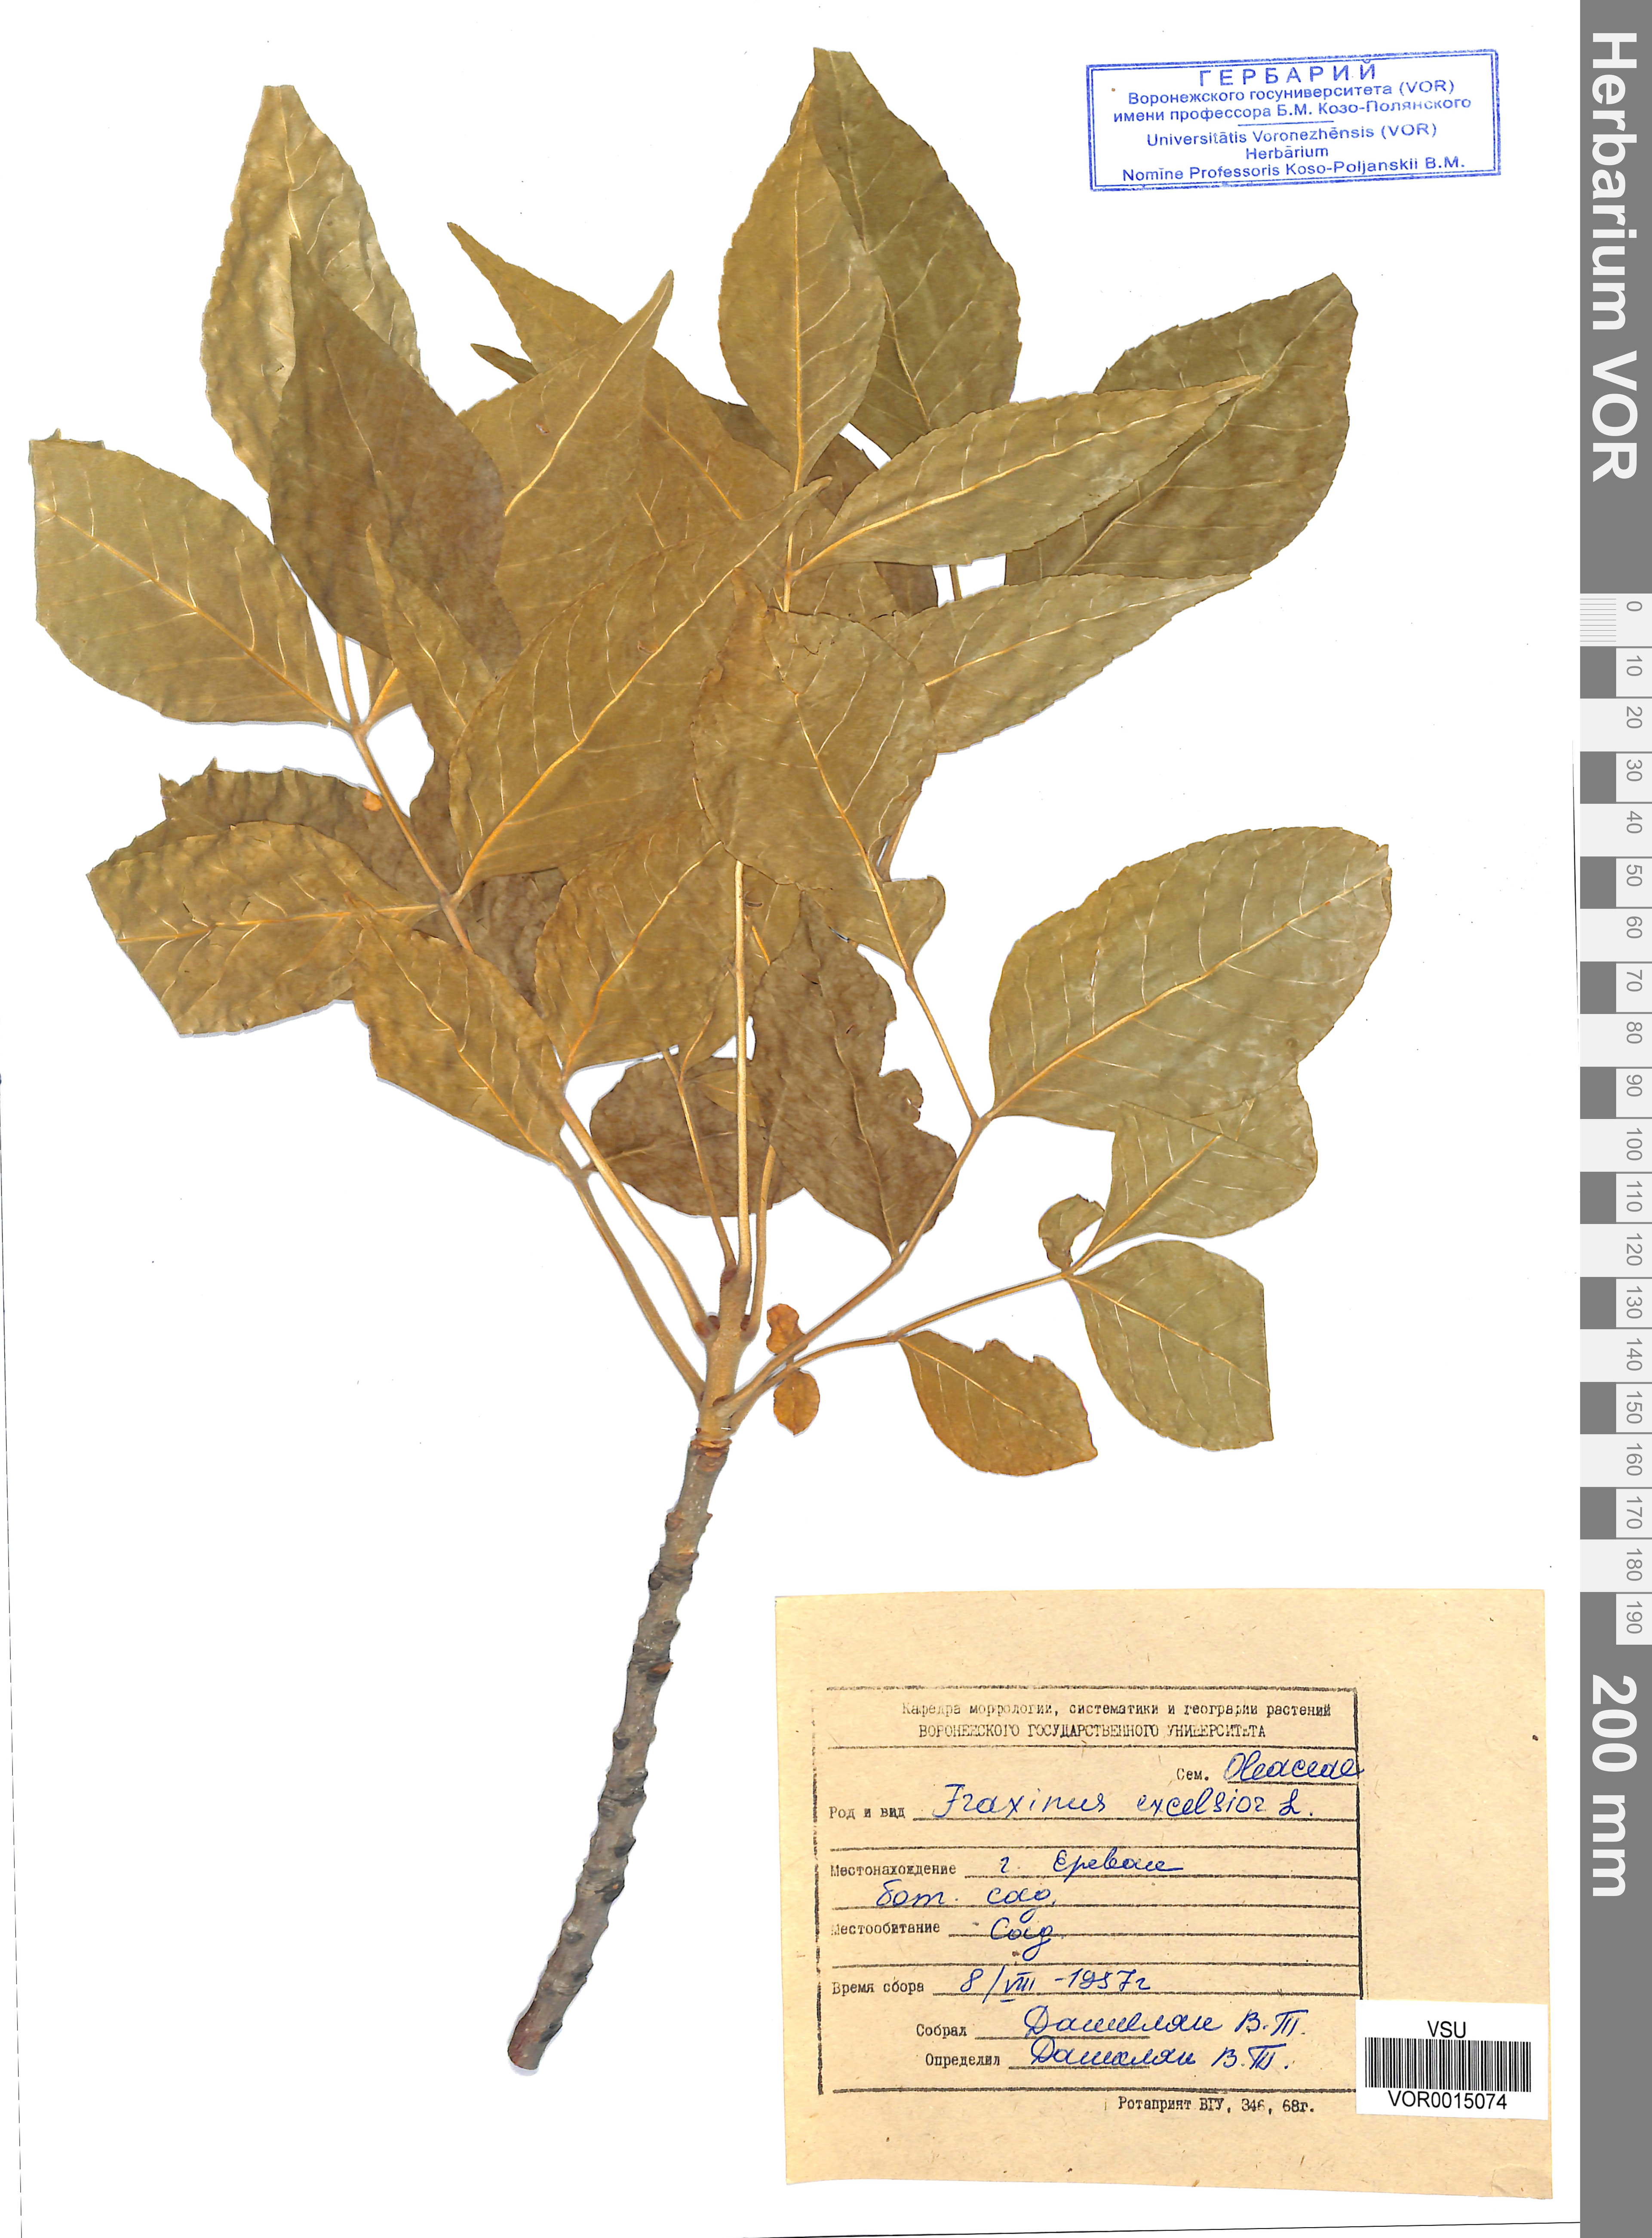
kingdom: Plantae
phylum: Tracheophyta
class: Magnoliopsida
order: Lamiales
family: Oleaceae
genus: Fraxinus
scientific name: Fraxinus excelsior
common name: European ash
